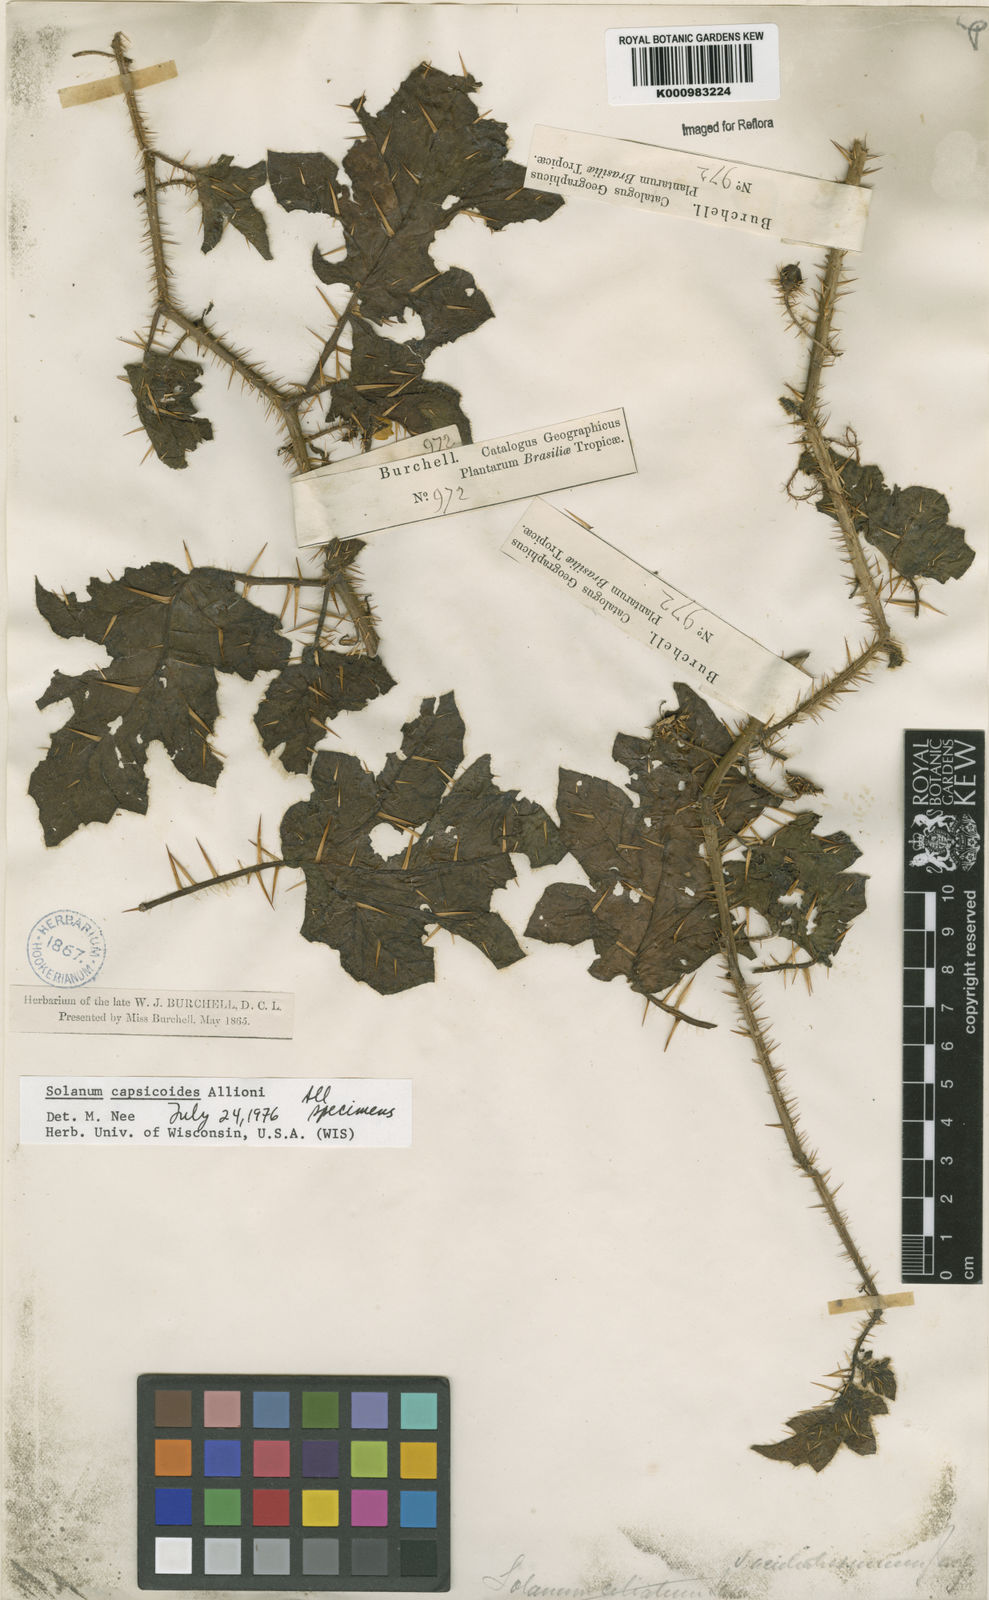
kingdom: Plantae
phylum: Tracheophyta
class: Magnoliopsida
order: Solanales
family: Solanaceae
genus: Solanum
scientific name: Solanum capsicoides
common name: Cockroach berry
